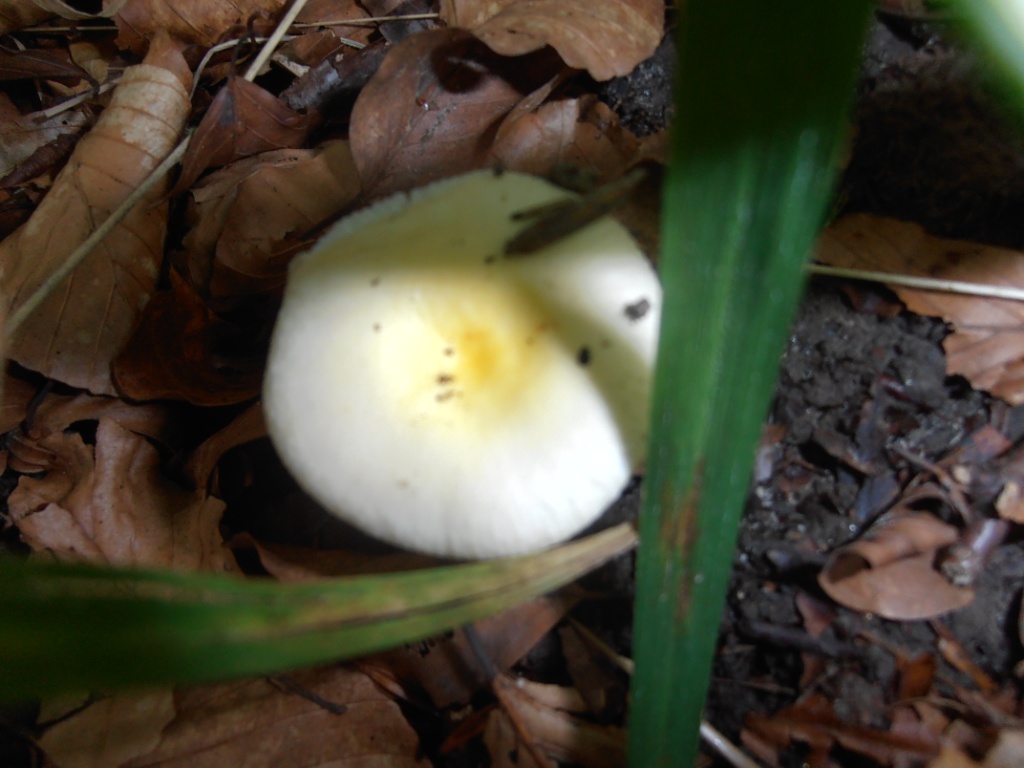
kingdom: Fungi
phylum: Basidiomycota
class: Agaricomycetes
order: Russulales
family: Russulaceae
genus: Russula
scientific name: Russula solaris
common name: sol-skørhat
